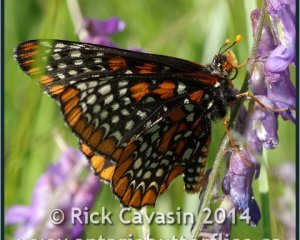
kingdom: Animalia
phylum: Arthropoda
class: Insecta
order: Lepidoptera
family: Nymphalidae
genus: Euphydryas
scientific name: Euphydryas phaeton
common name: Baltimore Checkerspot
